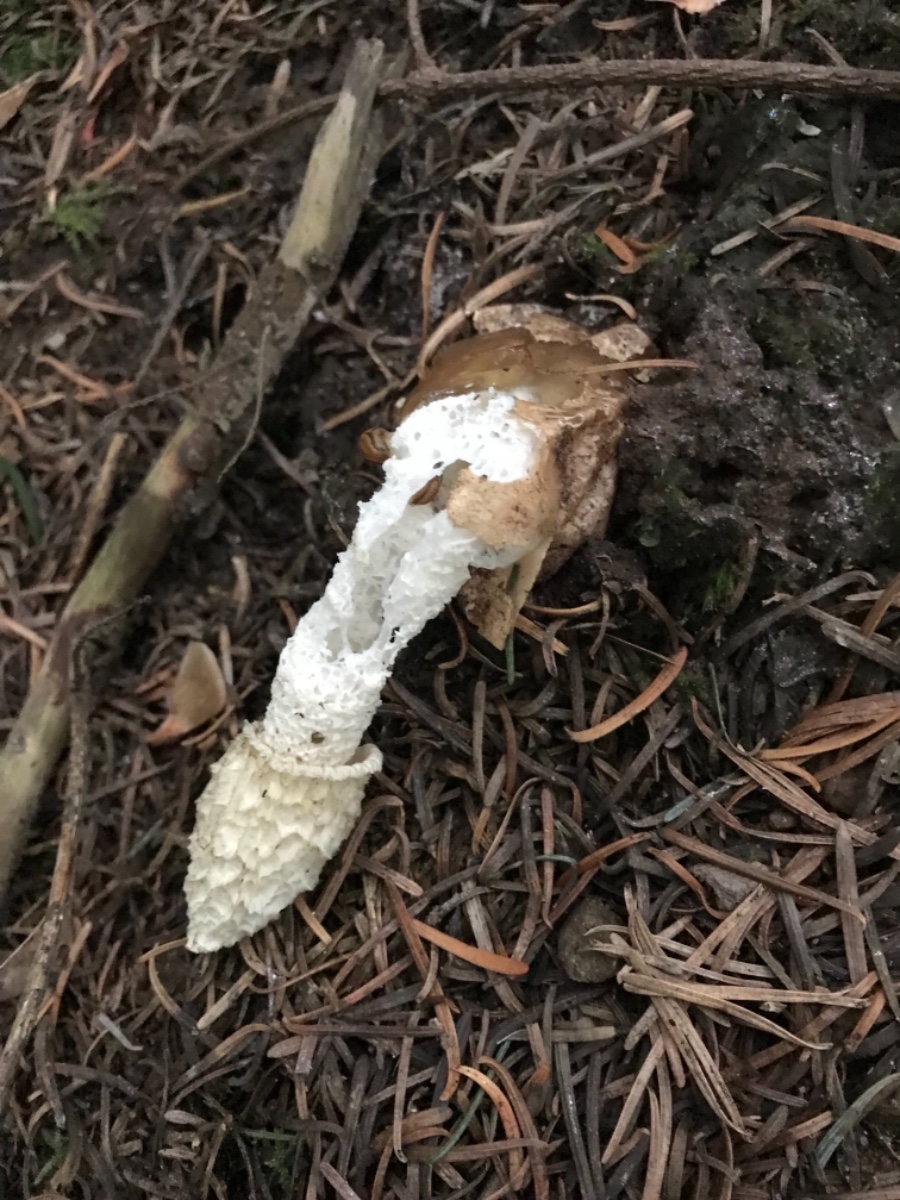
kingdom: Fungi
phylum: Basidiomycota
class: Agaricomycetes
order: Phallales
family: Phallaceae
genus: Phallus
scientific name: Phallus impudicus
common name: almindelig stinksvamp
